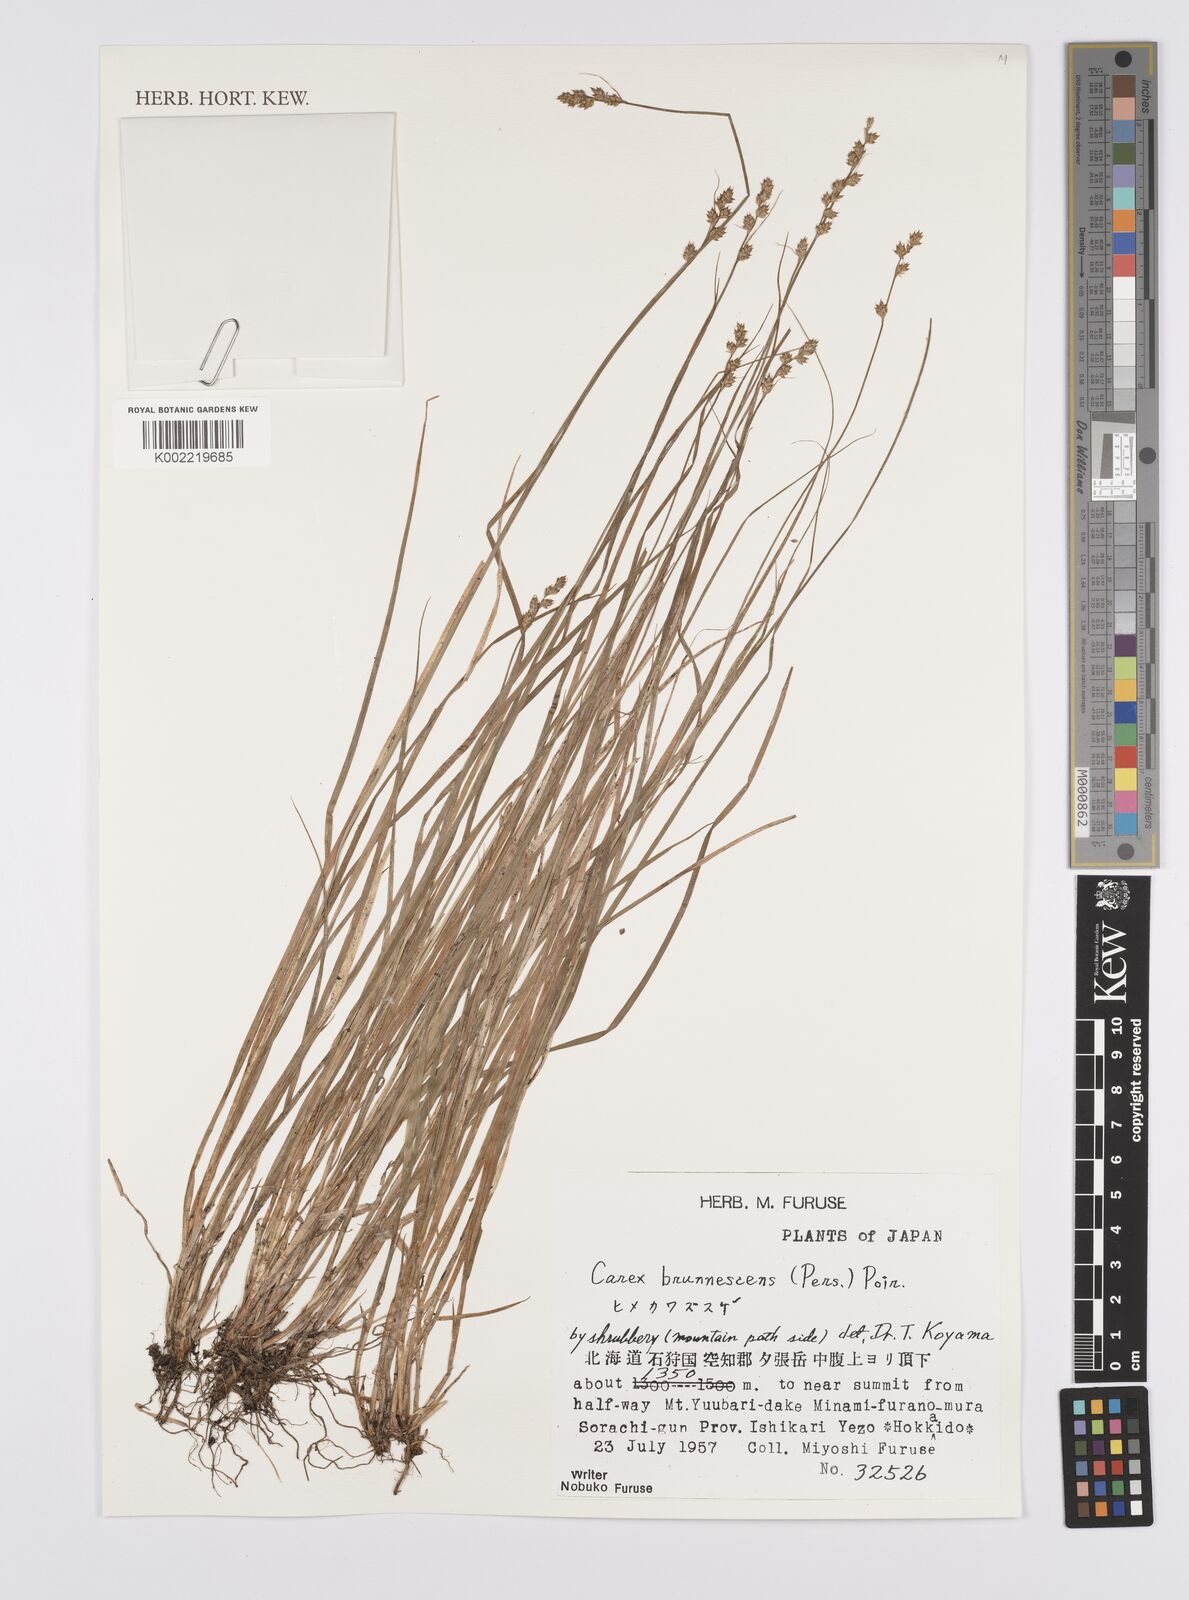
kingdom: Plantae
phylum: Tracheophyta
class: Liliopsida
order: Poales
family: Cyperaceae
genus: Carex
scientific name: Carex brunnescens
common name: Brown sedge
